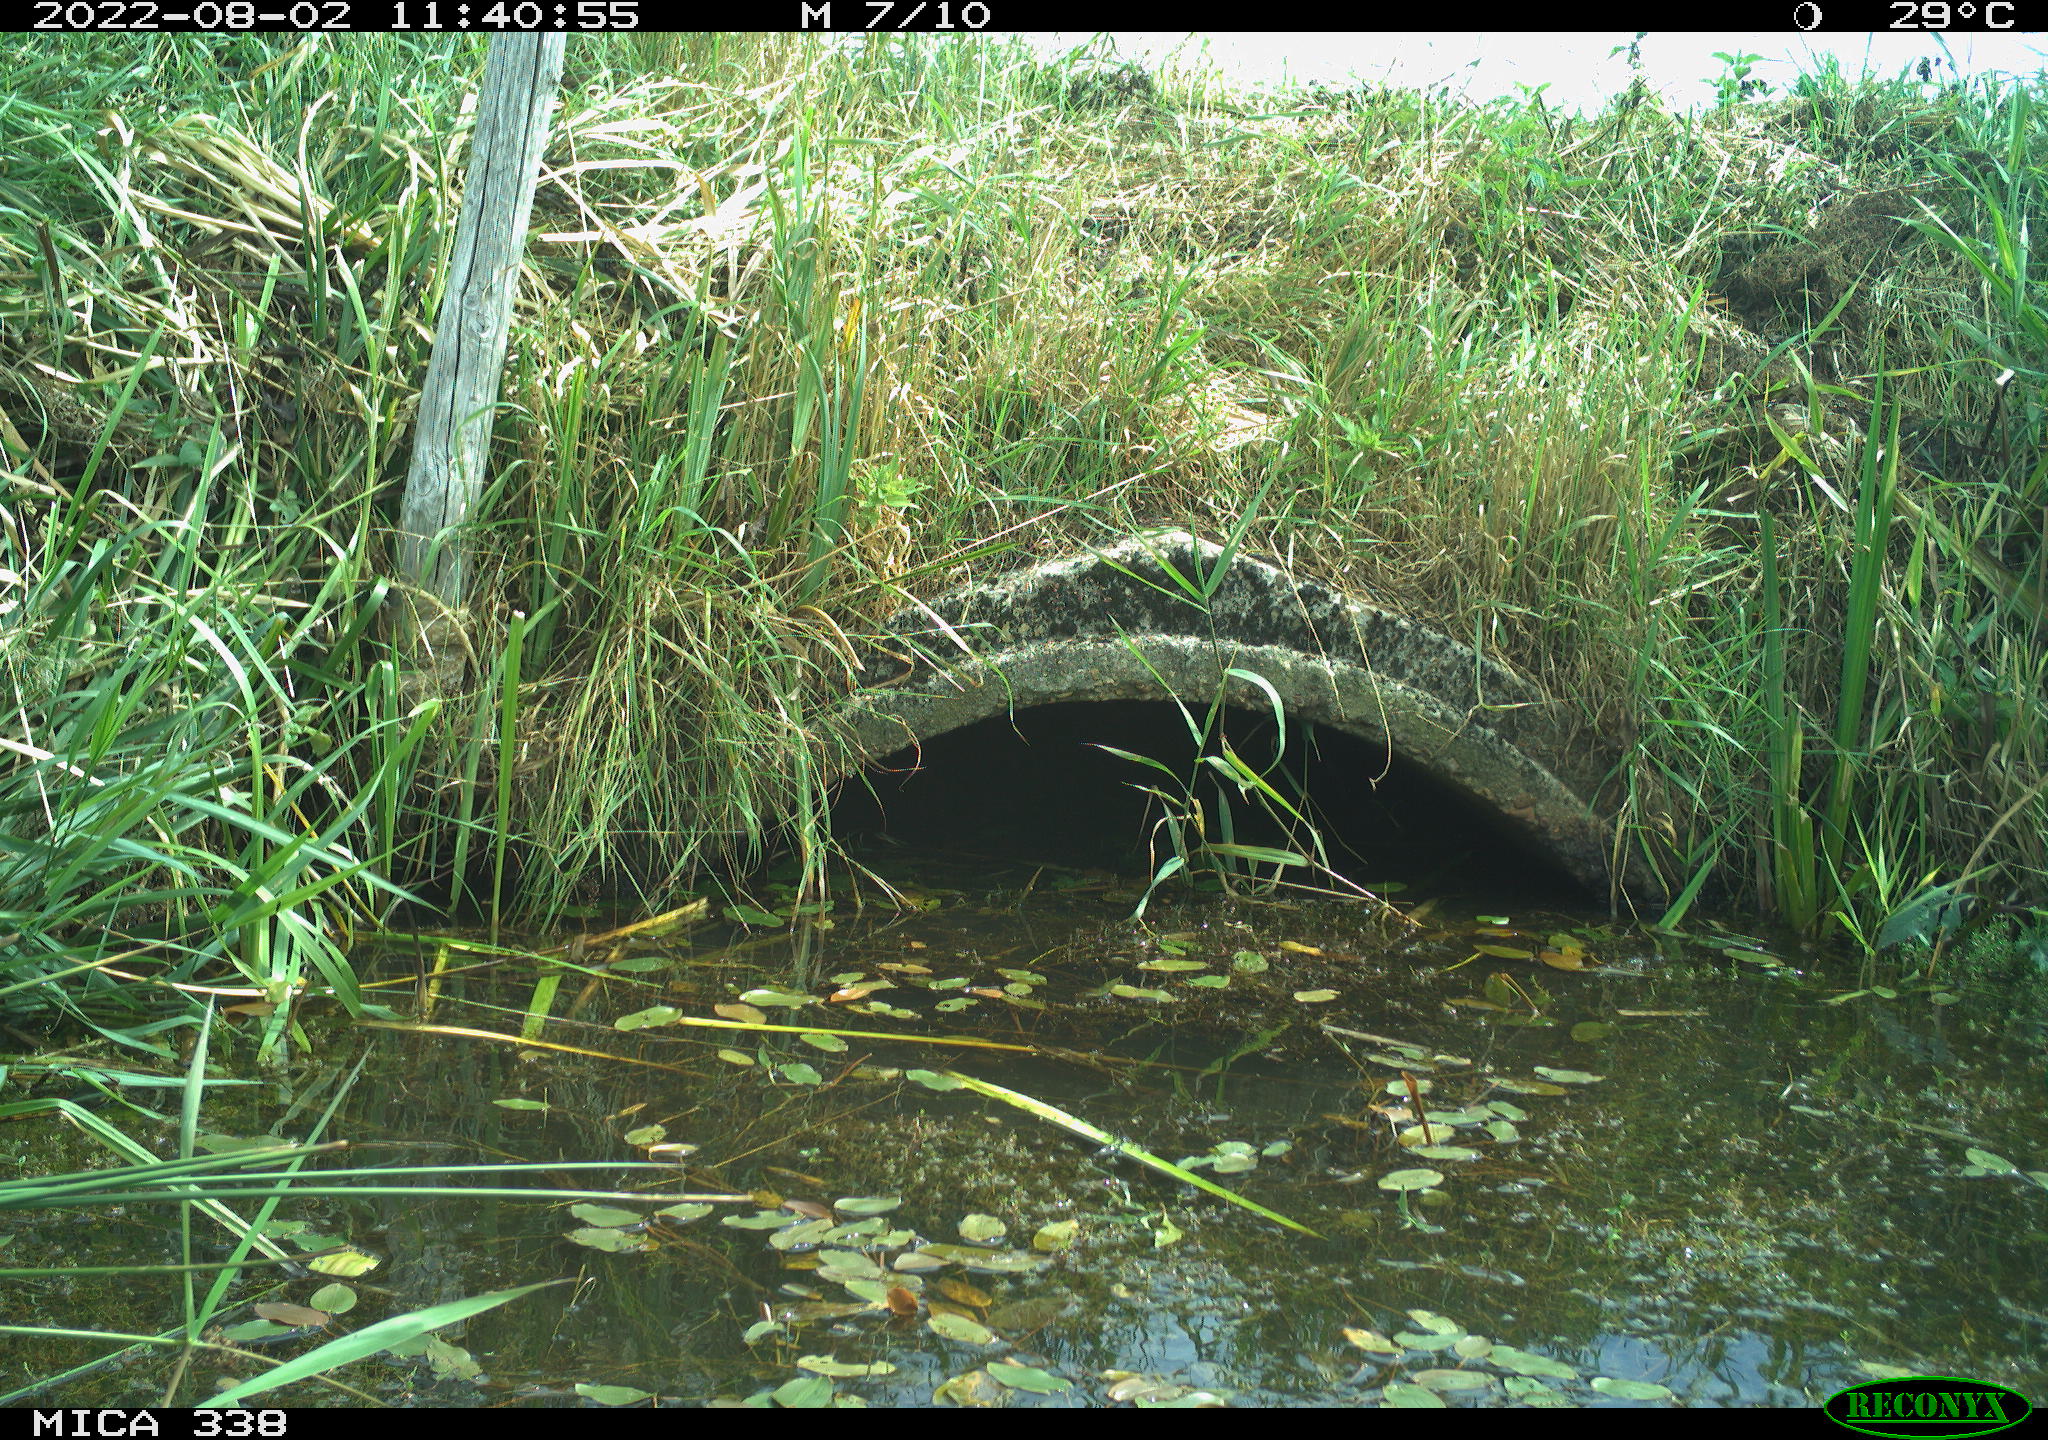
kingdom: Animalia
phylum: Chordata
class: Aves
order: Anseriformes
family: Anatidae
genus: Anas
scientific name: Anas platyrhynchos
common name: Mallard
